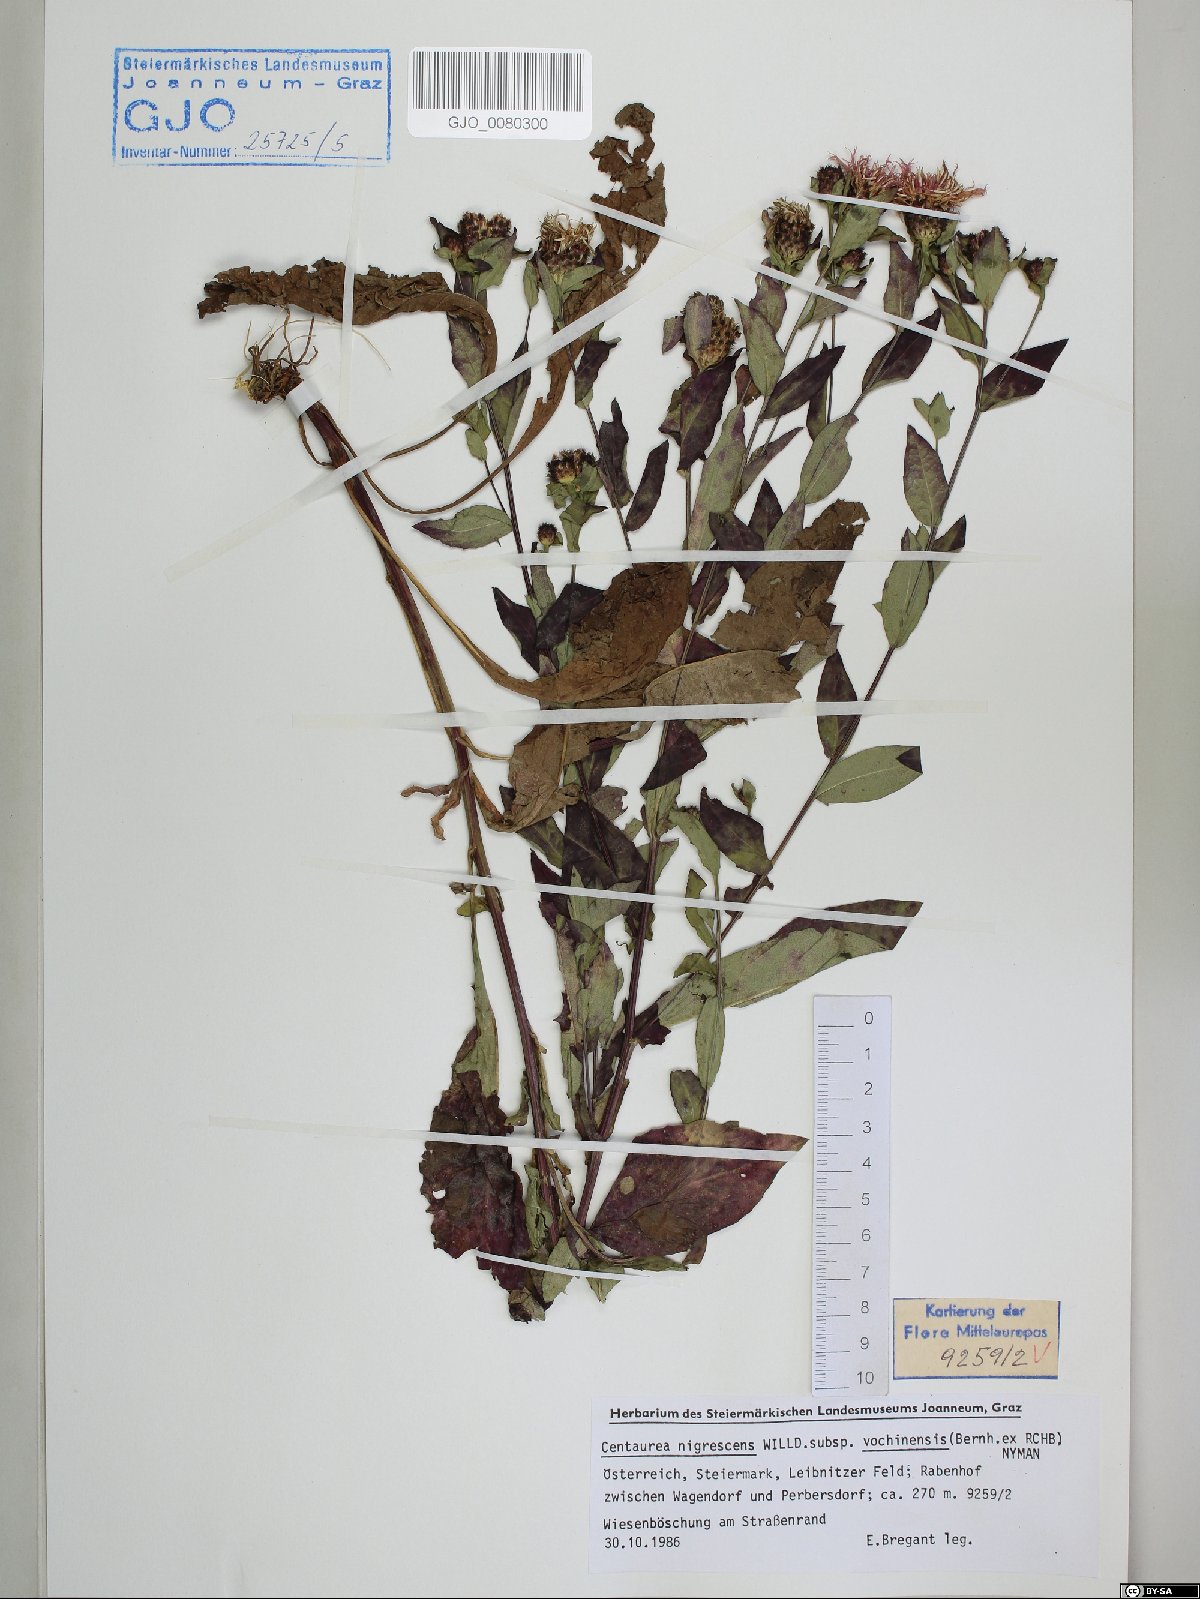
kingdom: Plantae
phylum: Tracheophyta
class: Magnoliopsida
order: Asterales
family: Asteraceae
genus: Centaurea
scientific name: Centaurea carniolica
